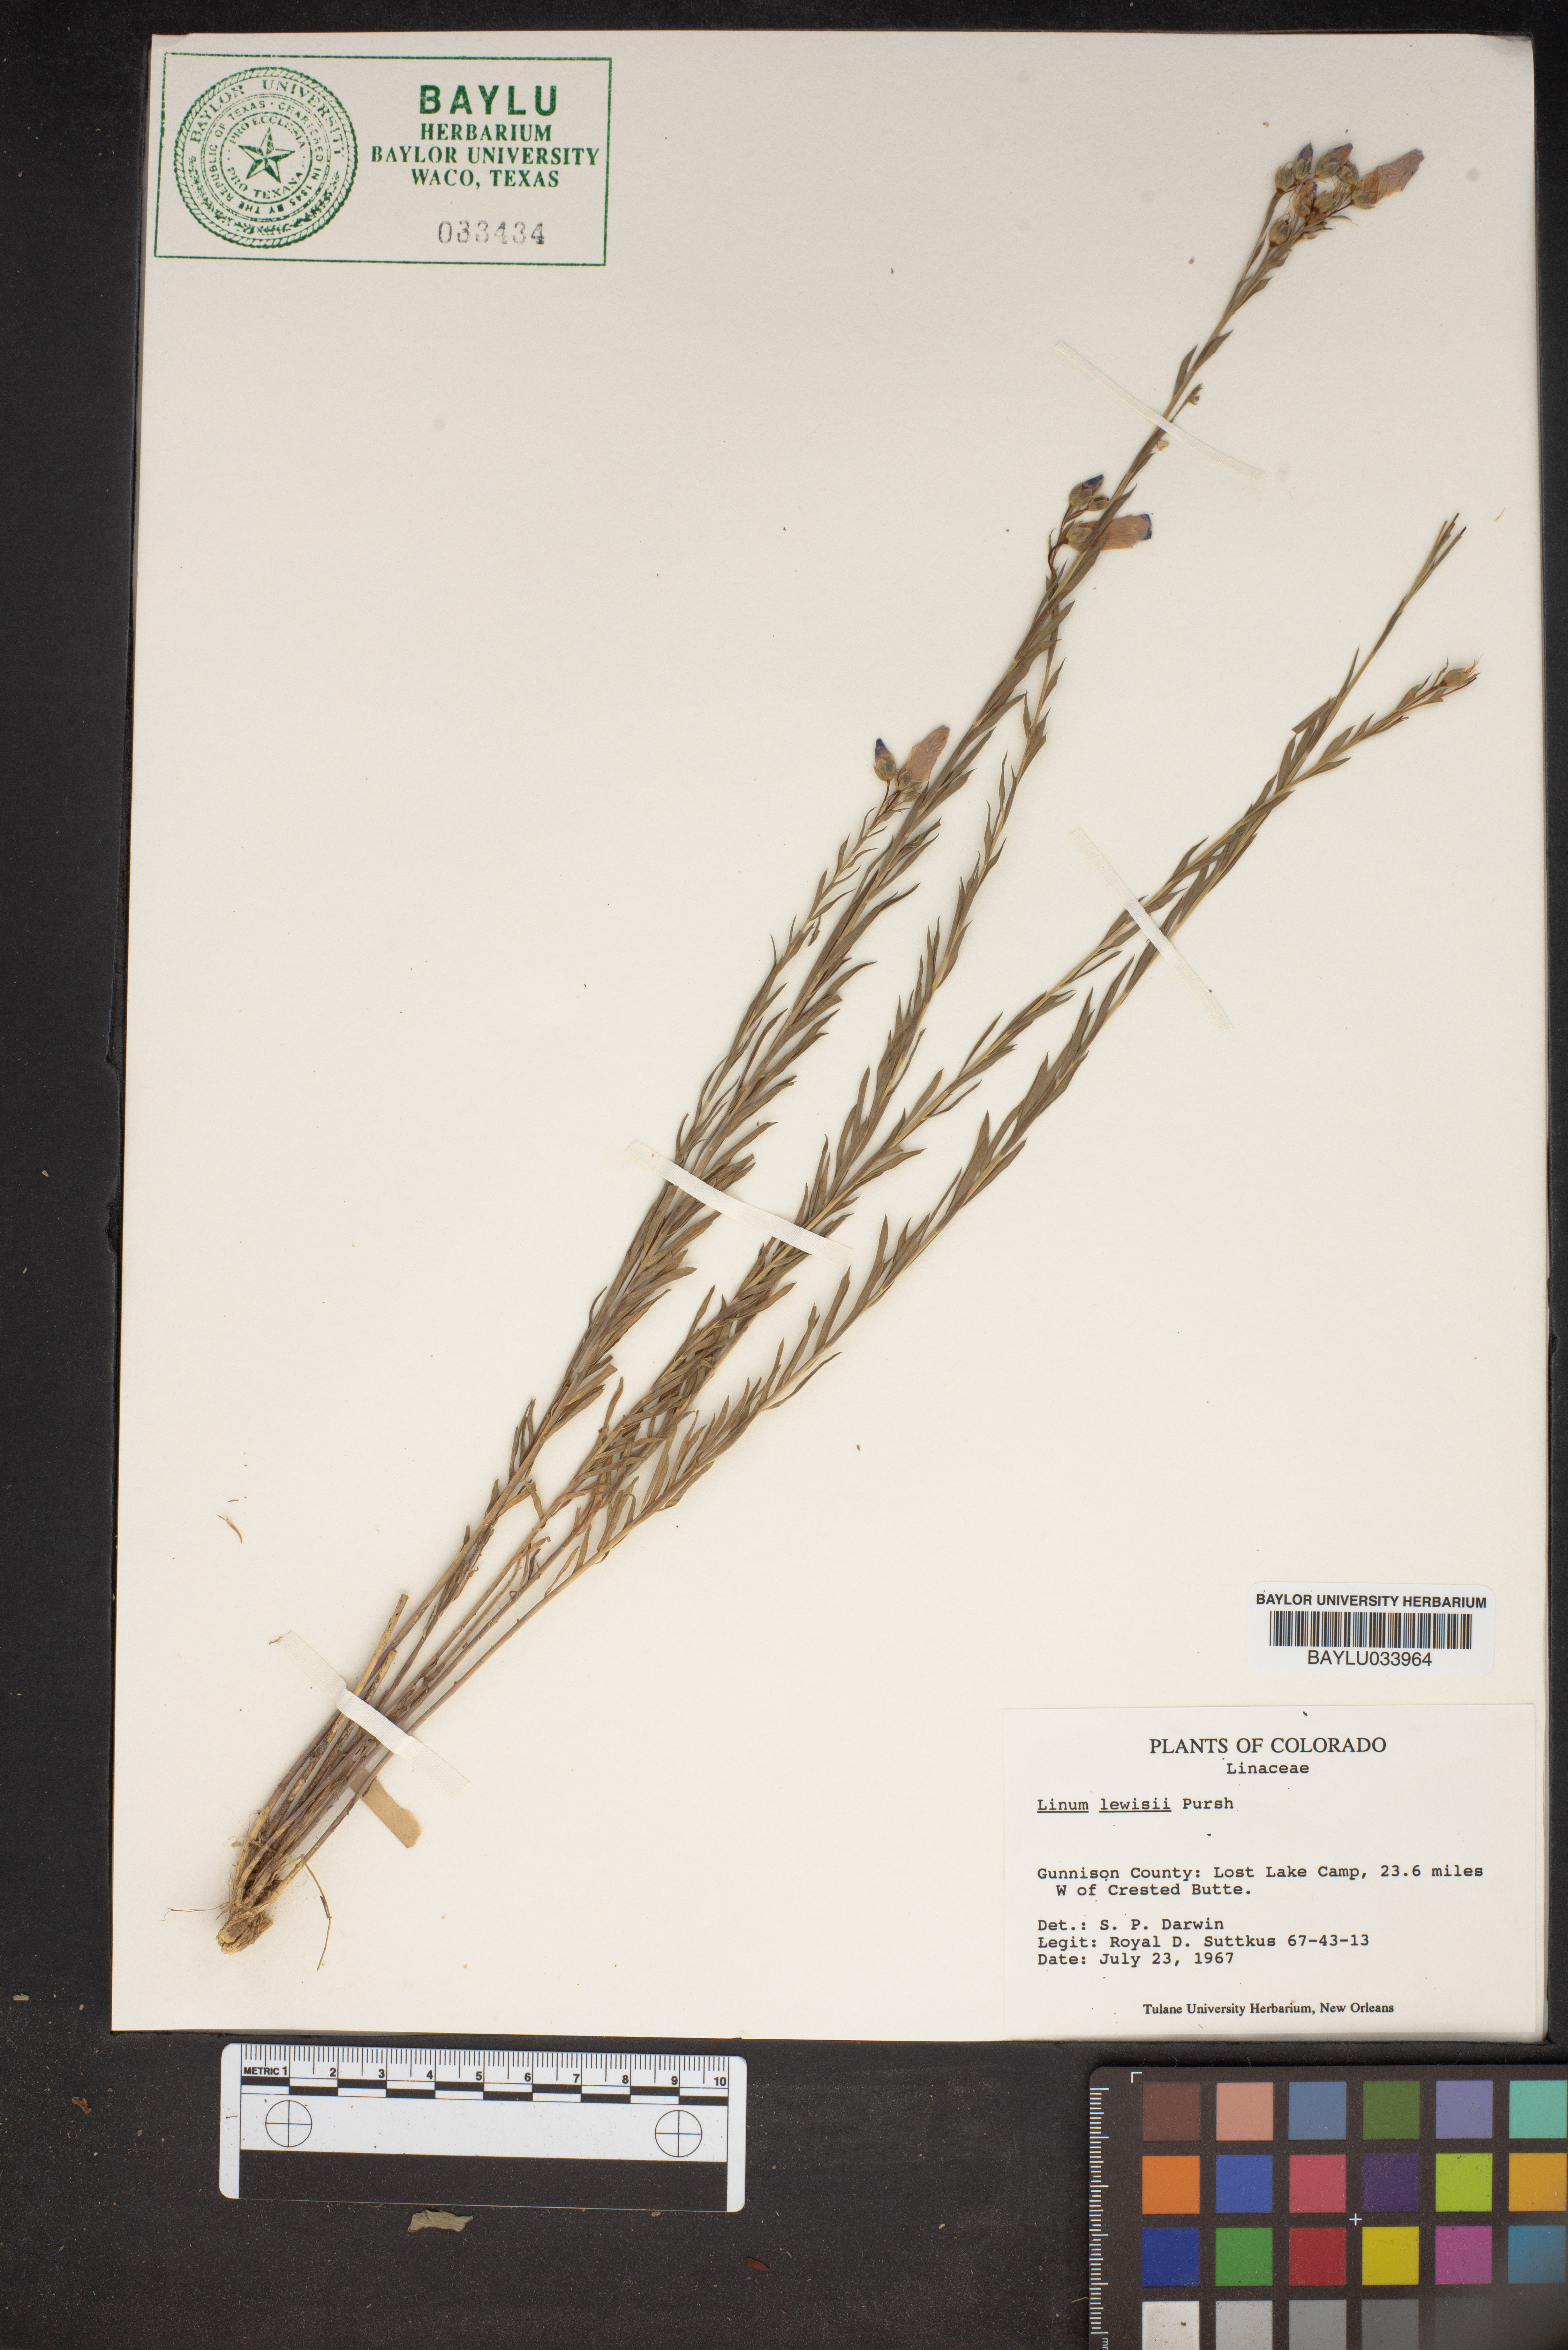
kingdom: Plantae
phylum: Tracheophyta
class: Magnoliopsida
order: Malpighiales
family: Linaceae
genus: Linum
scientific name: Linum lewisii
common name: Prairie flax
